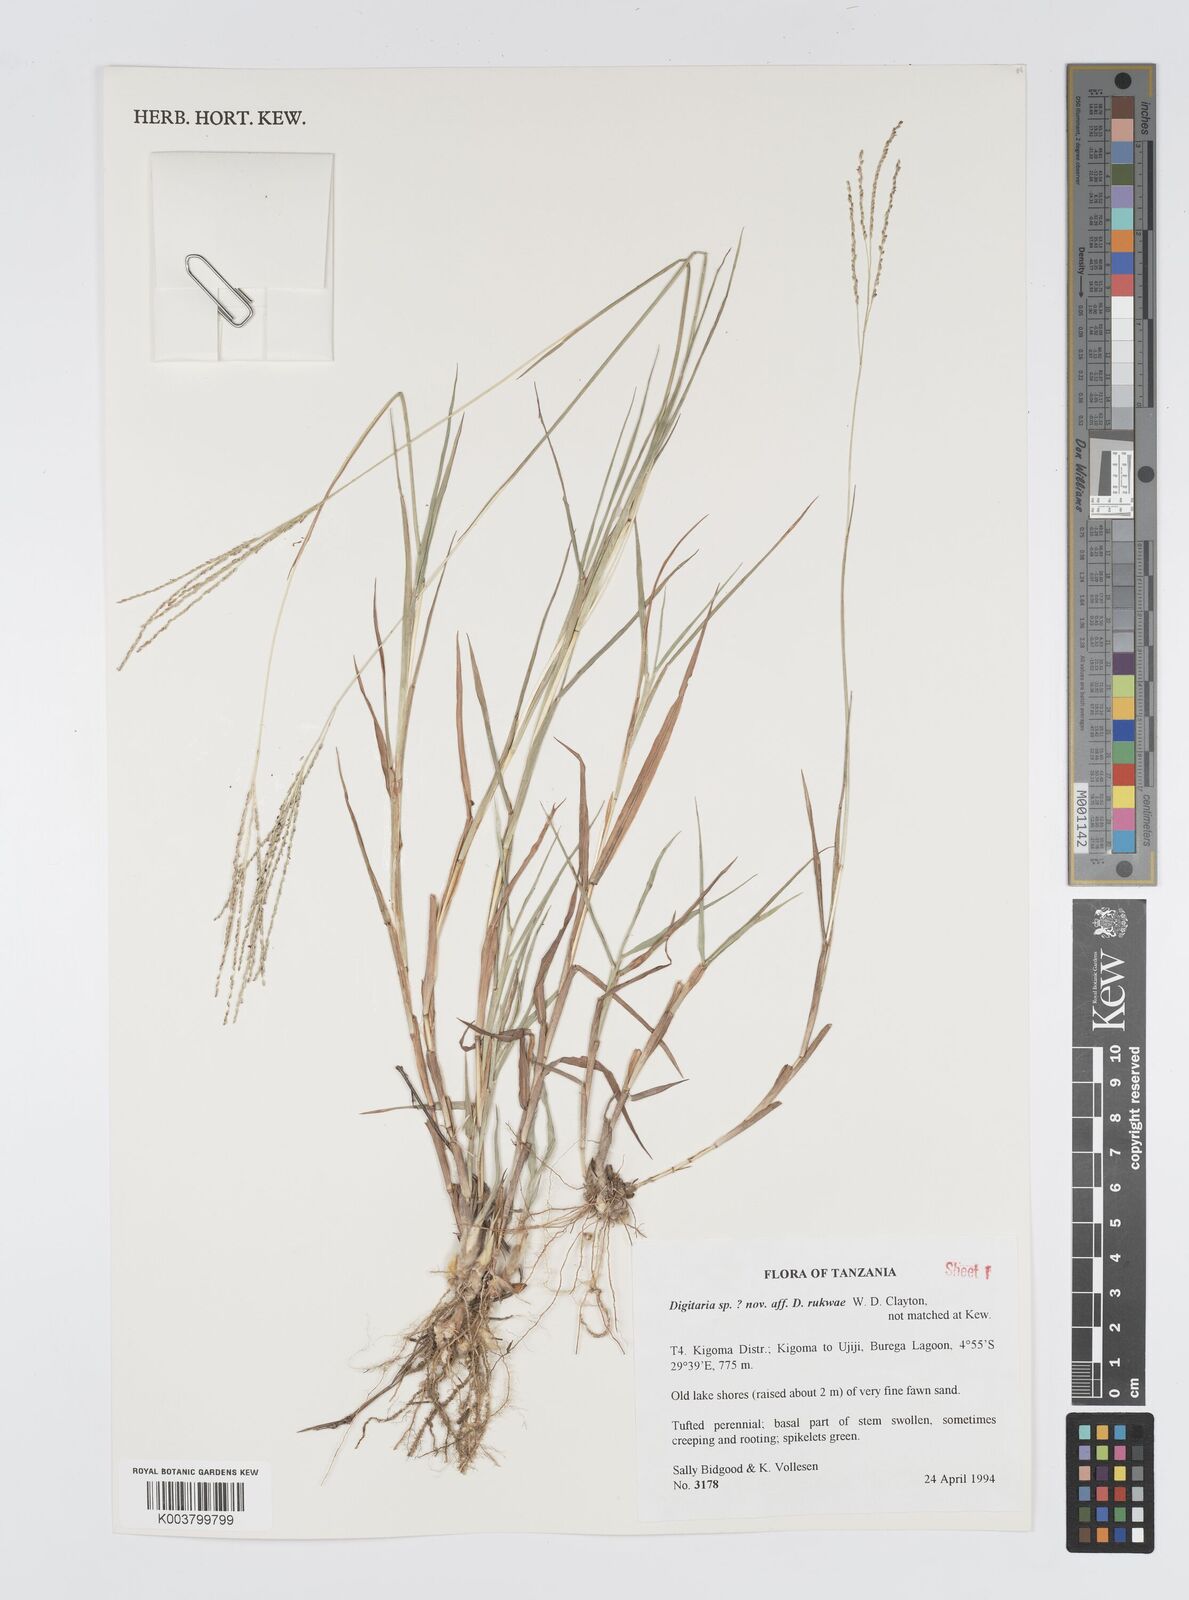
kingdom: Plantae
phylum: Tracheophyta
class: Liliopsida
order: Poales
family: Poaceae
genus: Digitaria
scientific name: Digitaria rukwae
